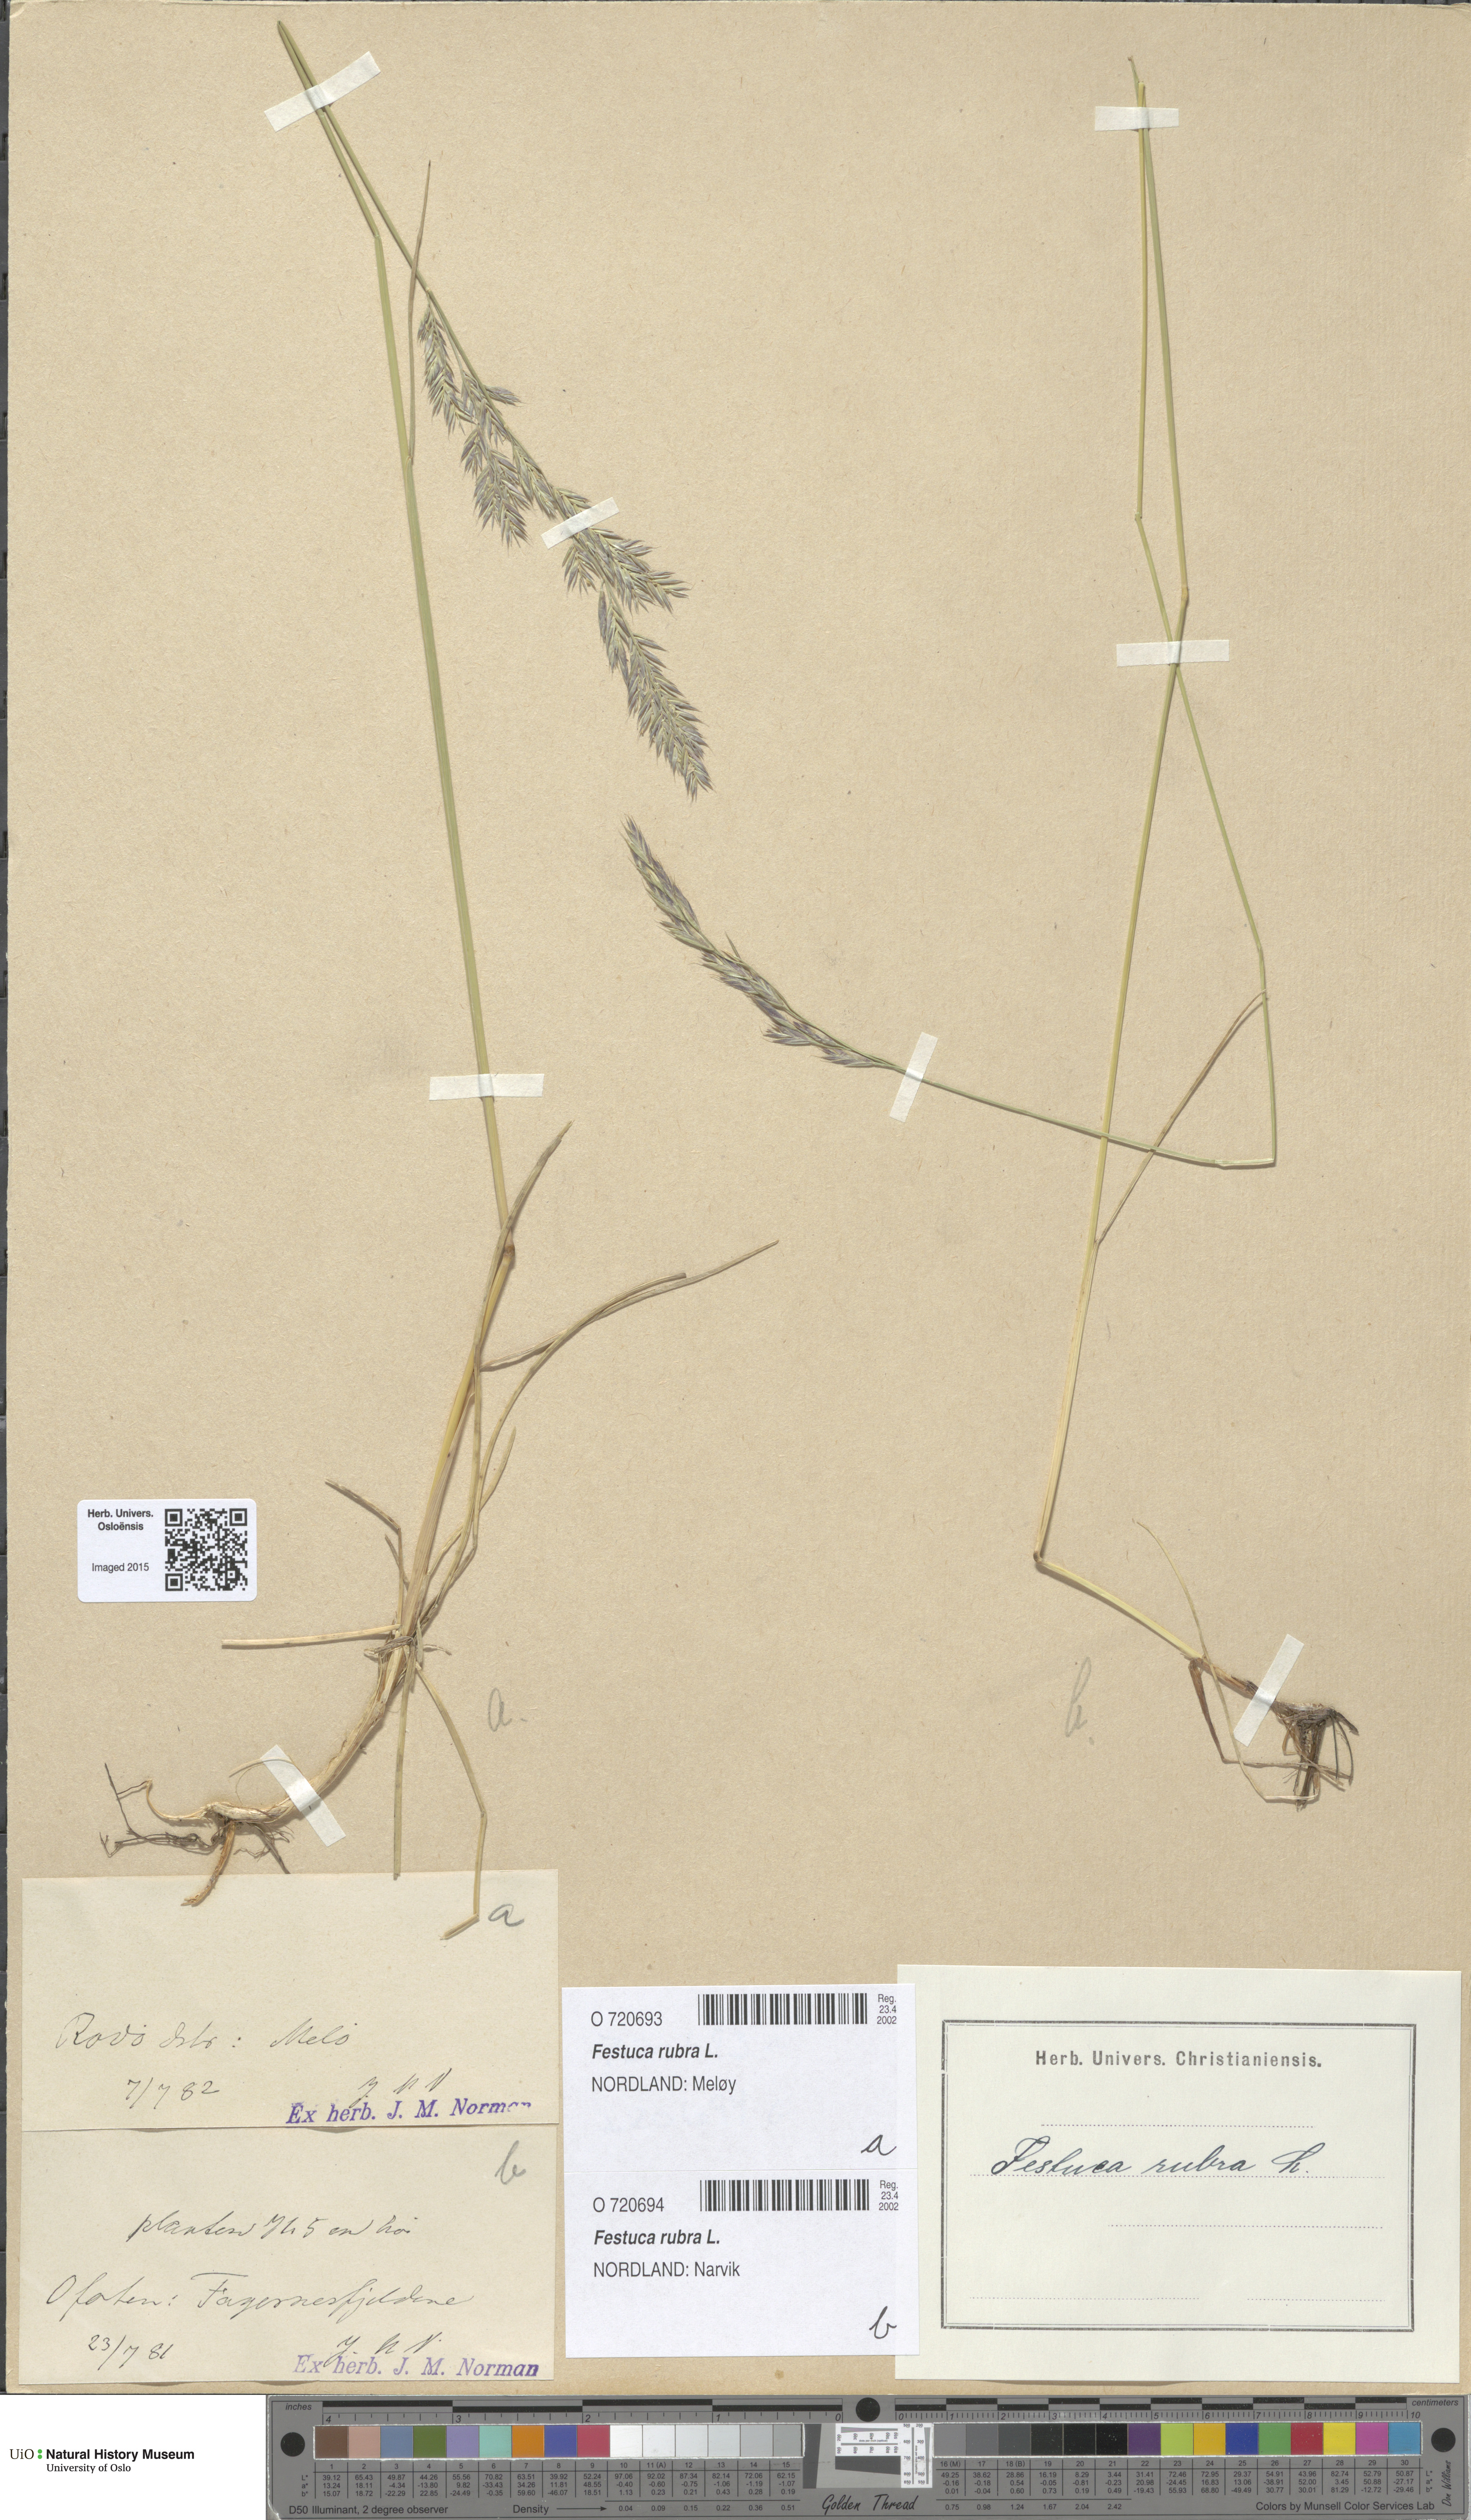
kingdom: Plantae
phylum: Tracheophyta
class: Liliopsida
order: Poales
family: Poaceae
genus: Festuca
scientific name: Festuca rubra
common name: Red fescue
